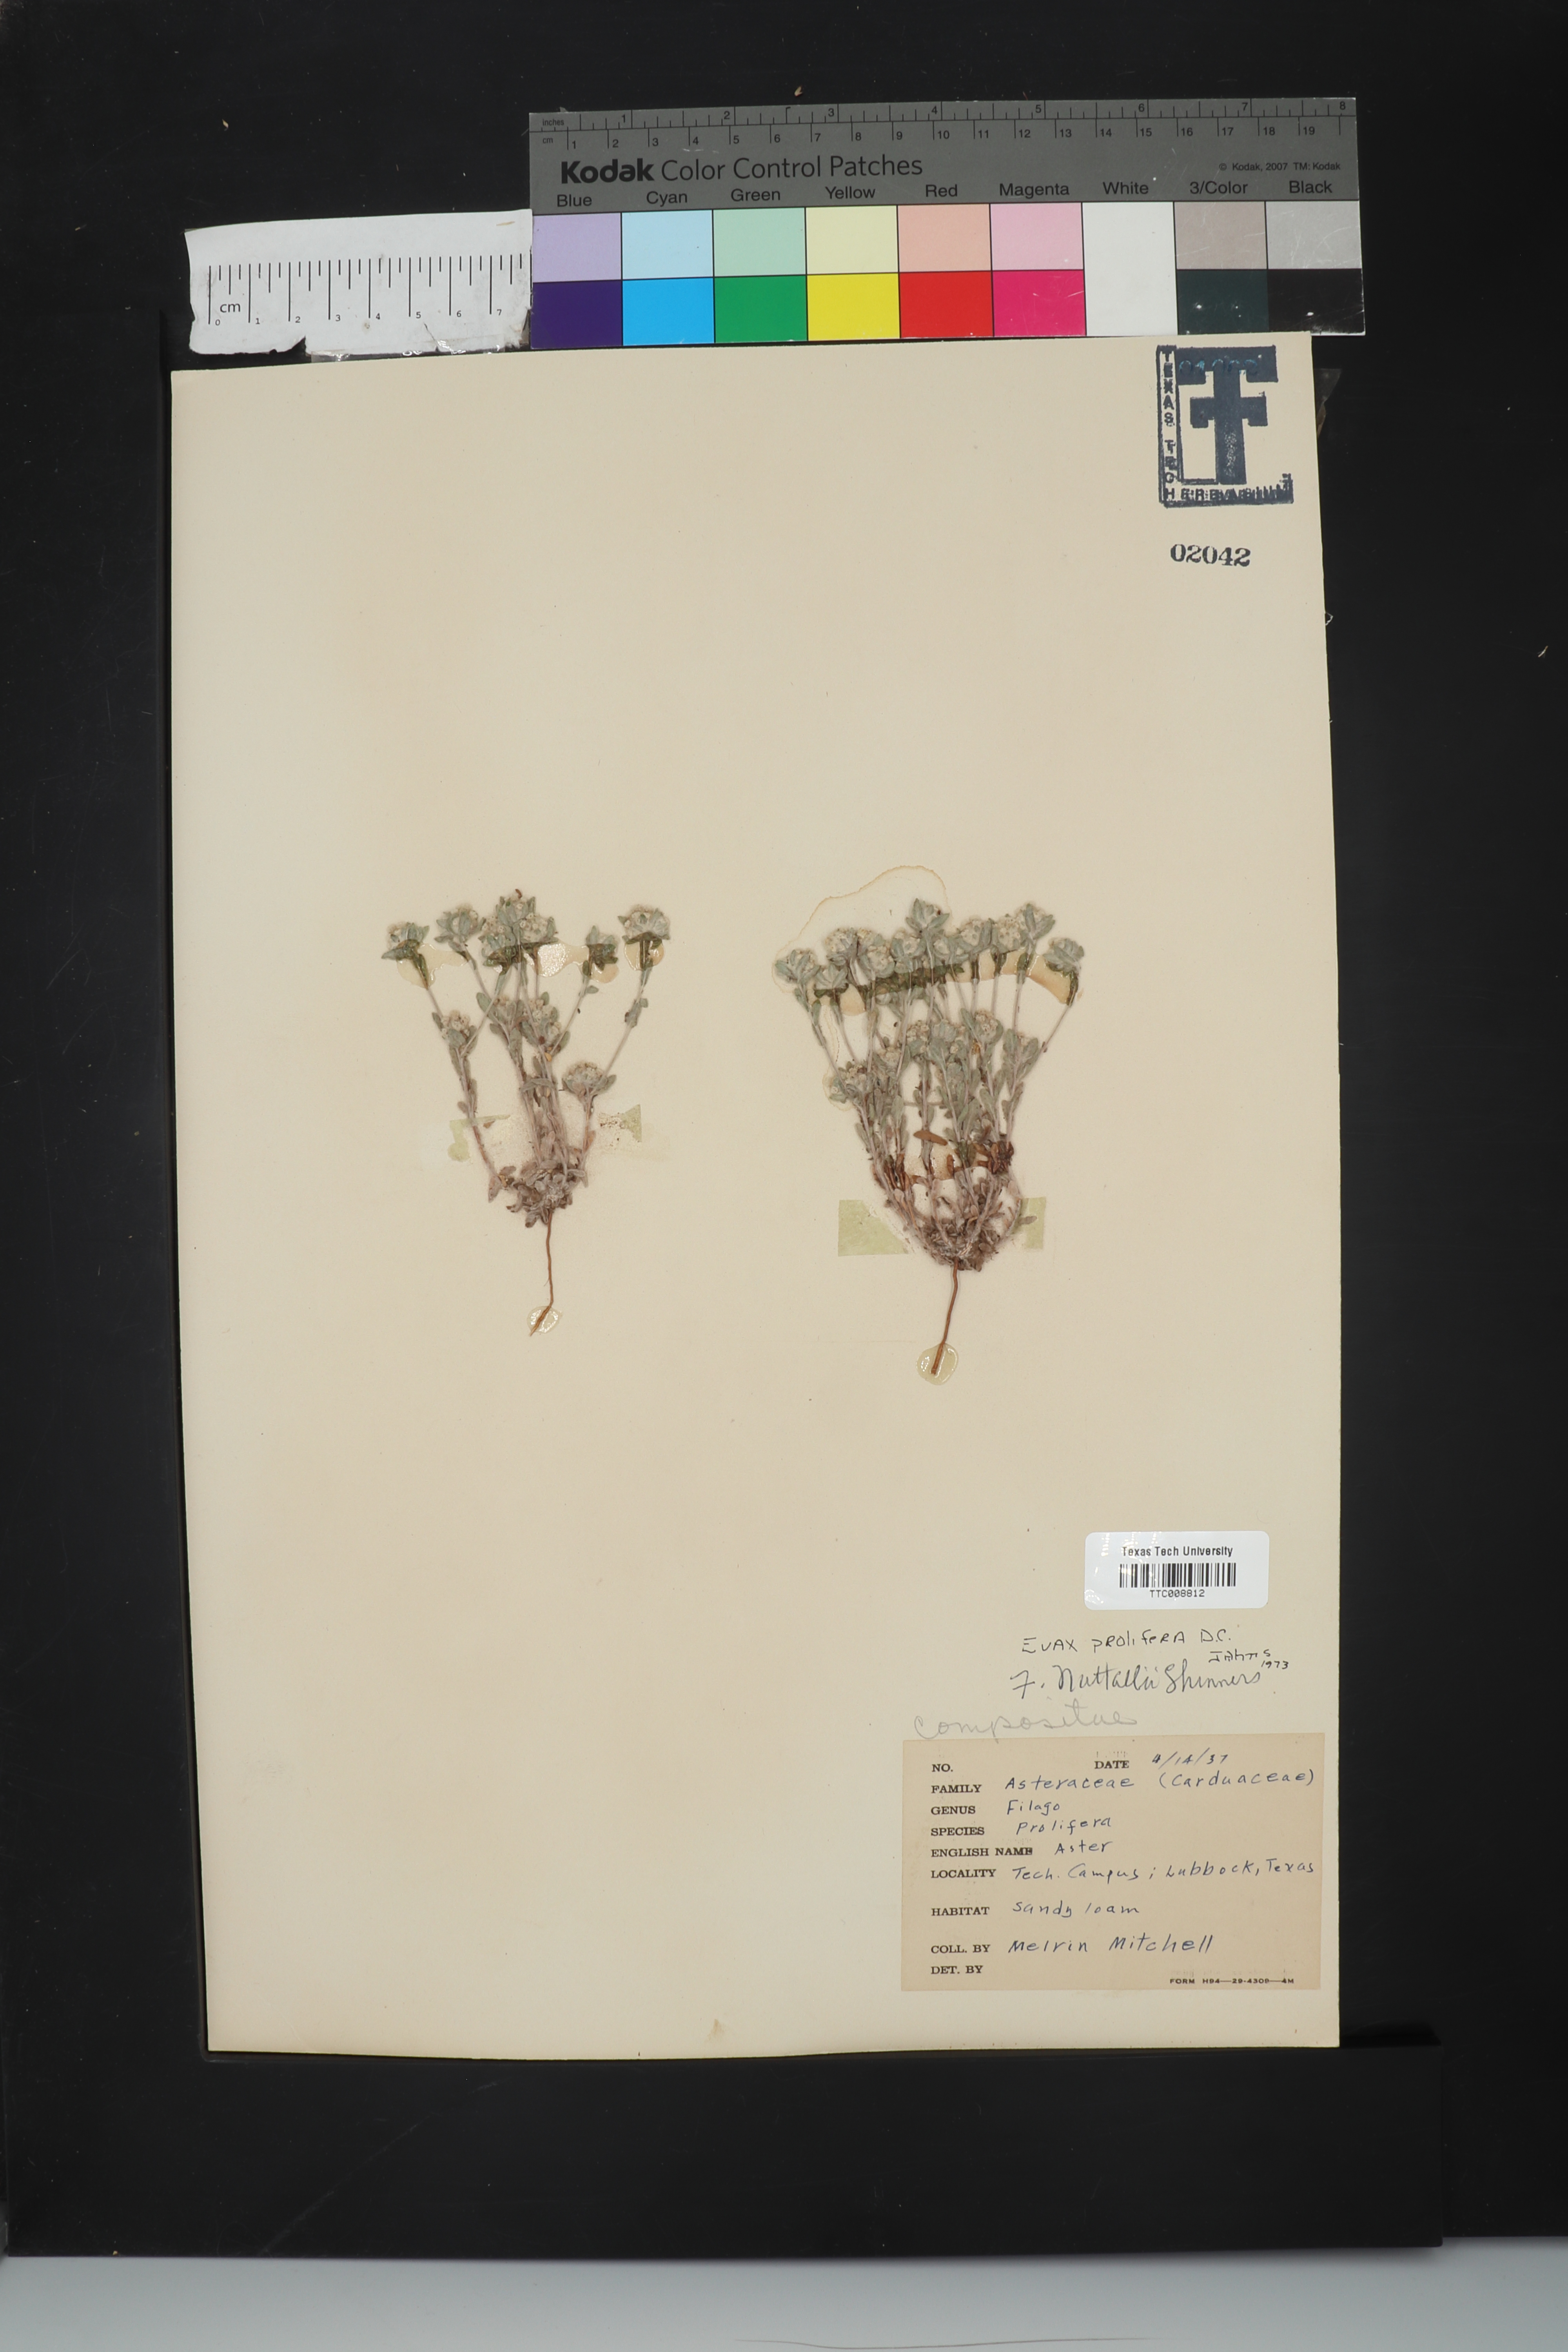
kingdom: Plantae
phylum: Tracheophyta
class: Magnoliopsida
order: Asterales
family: Asteraceae
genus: Diaperia
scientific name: Diaperia prolifera
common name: Big-head rabbit-tobacco
